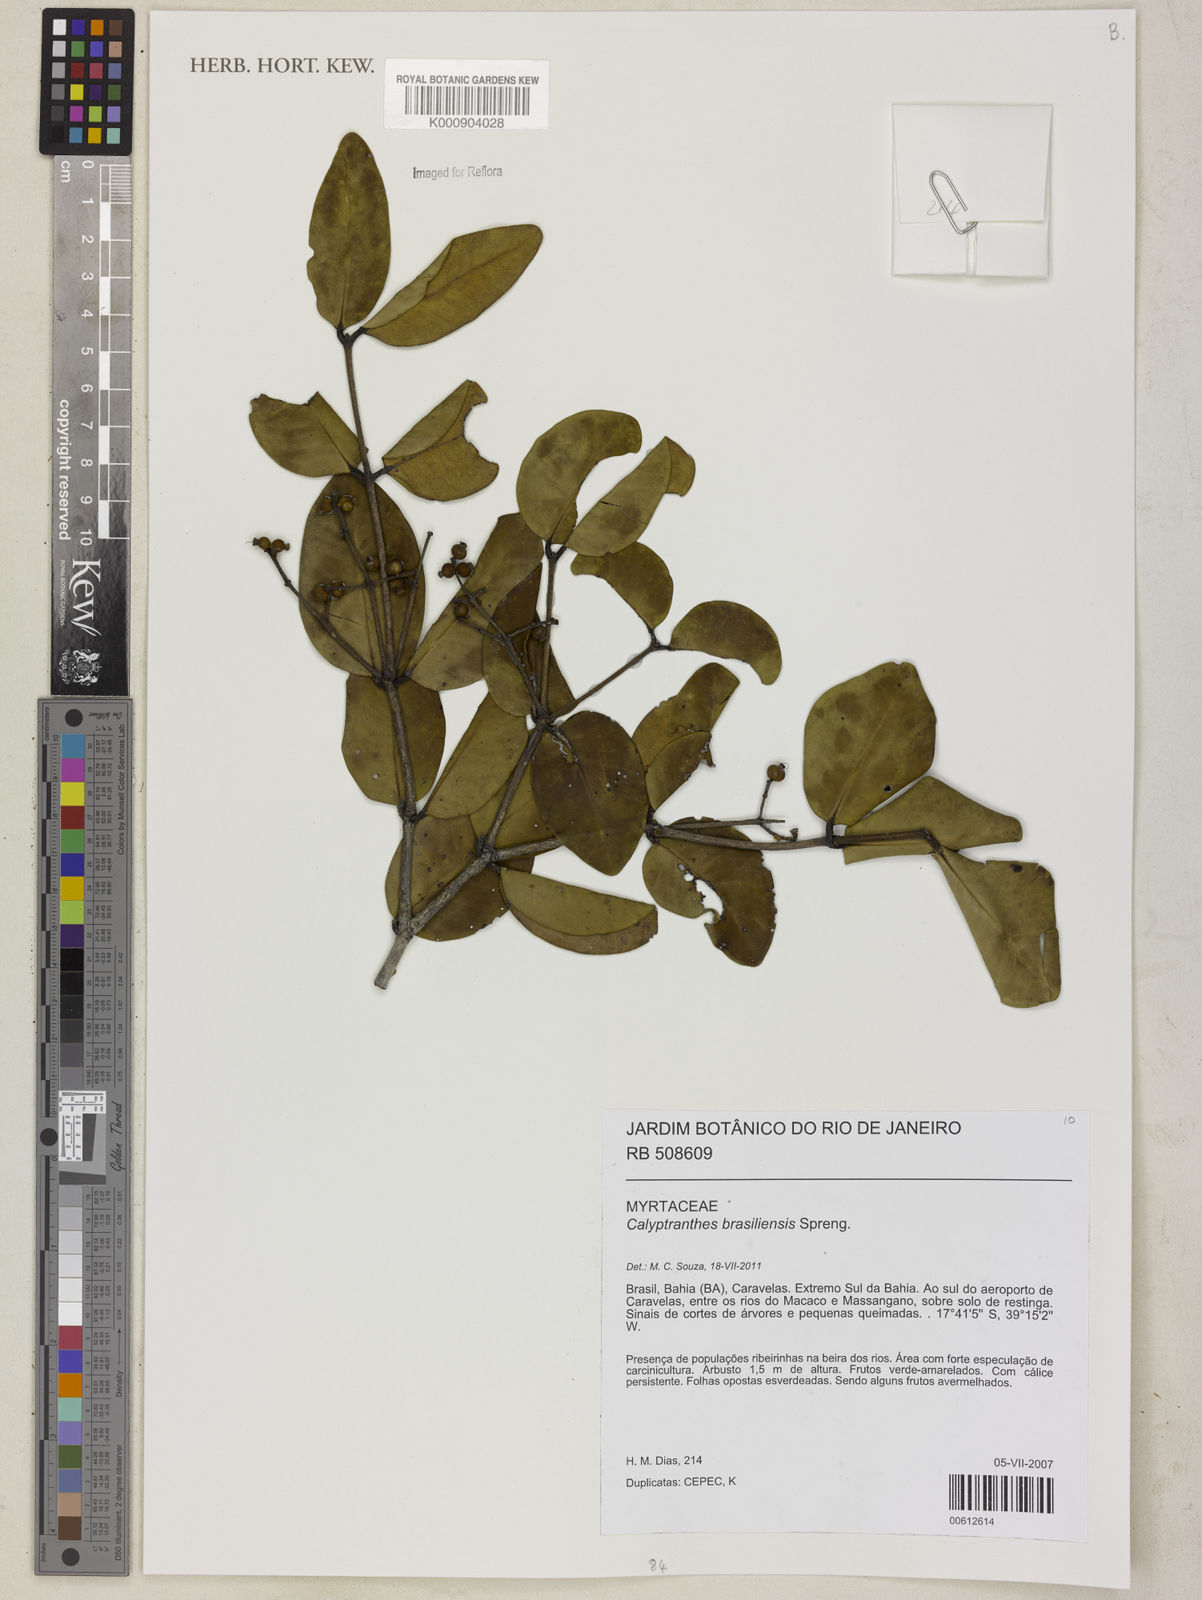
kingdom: Plantae
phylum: Tracheophyta
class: Magnoliopsida
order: Myrtales
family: Myrtaceae
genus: Myrcia
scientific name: Myrcia neobrasiliensis
